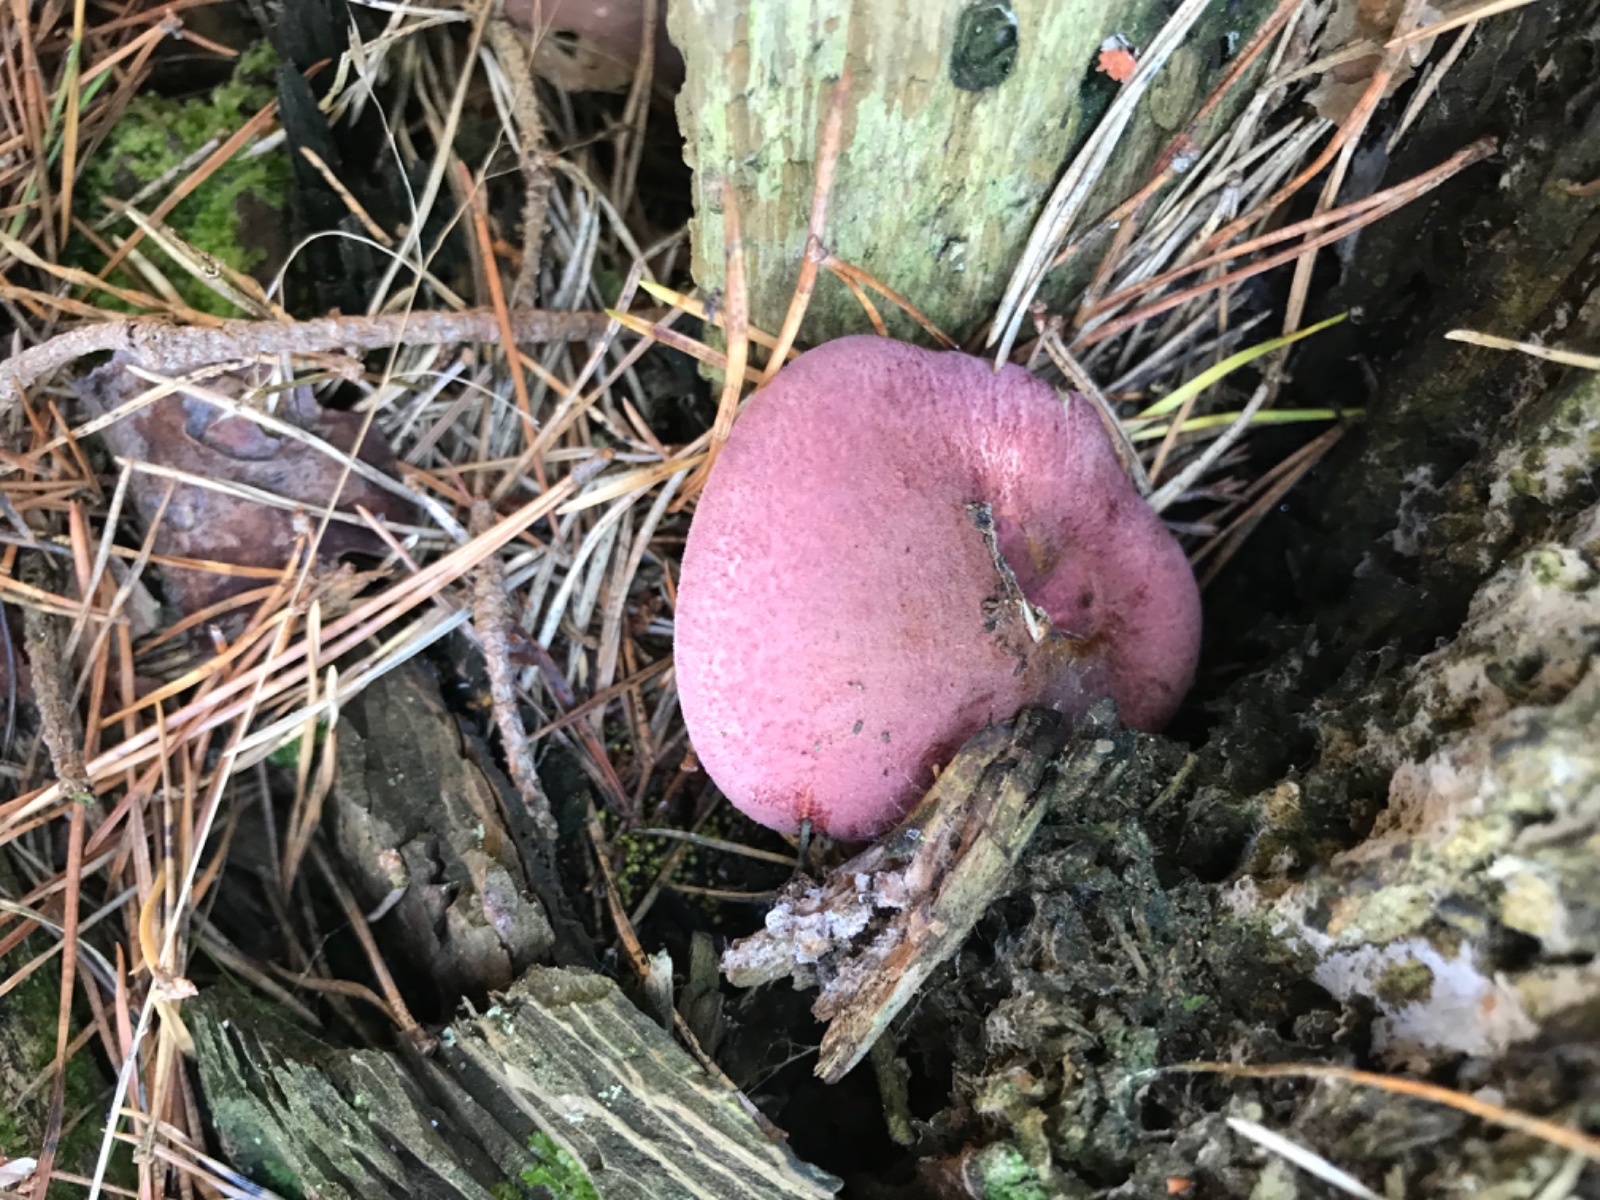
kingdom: Fungi
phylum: Basidiomycota
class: Agaricomycetes
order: Agaricales
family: Tricholomataceae
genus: Tricholomopsis
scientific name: Tricholomopsis rutilans
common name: purpur-væbnerhat
